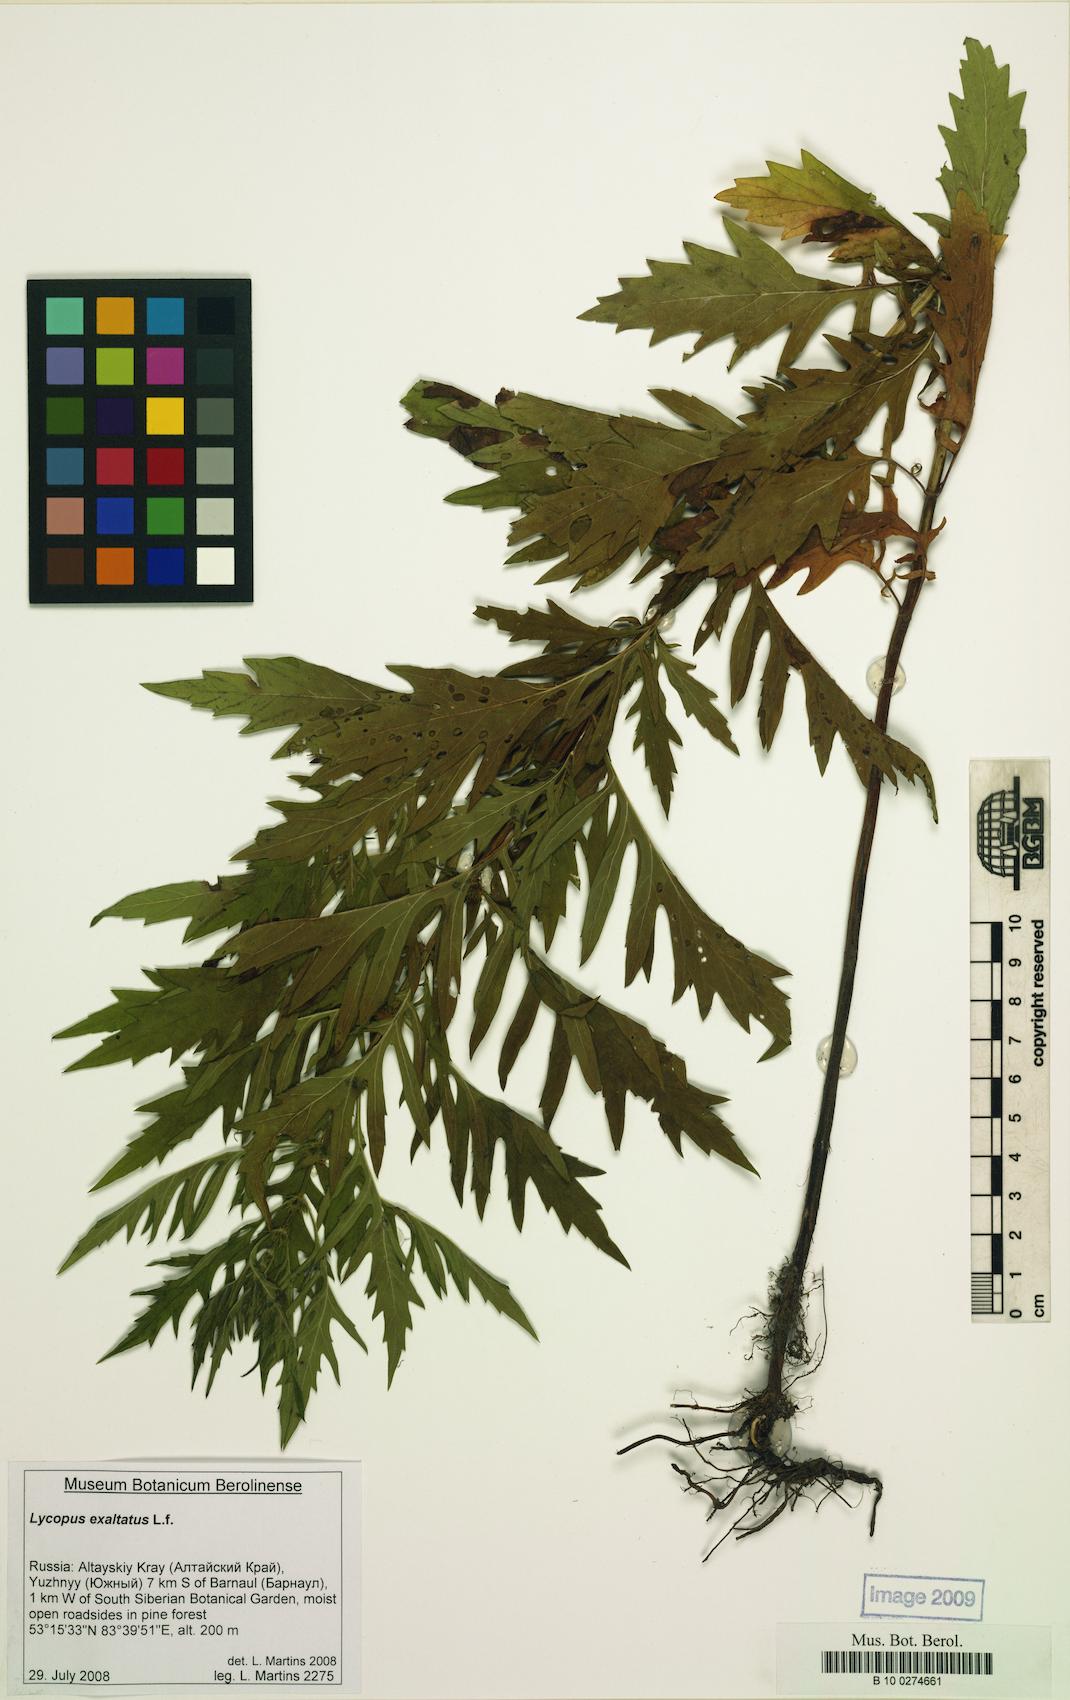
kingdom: Plantae
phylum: Tracheophyta
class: Magnoliopsida
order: Lamiales
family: Lamiaceae
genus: Lycopus
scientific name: Lycopus exaltatus
